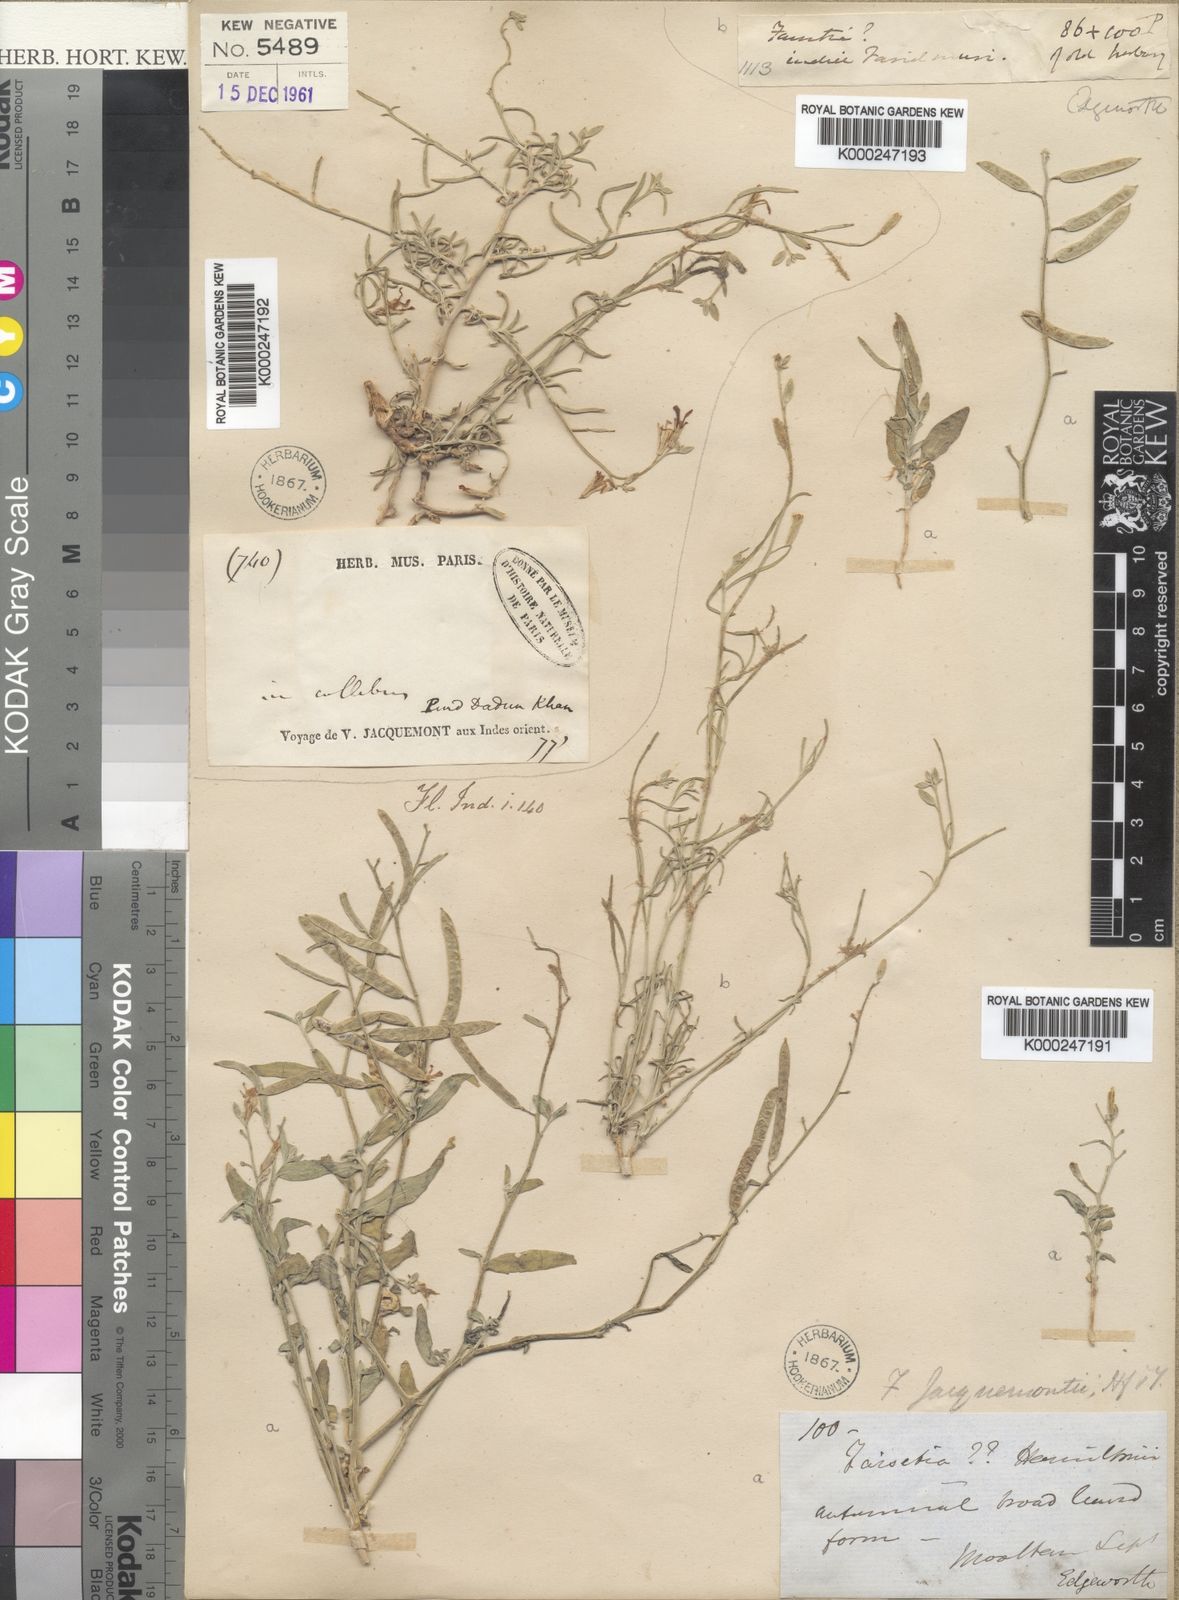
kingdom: Plantae
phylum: Tracheophyta
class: Magnoliopsida
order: Brassicales
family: Brassicaceae
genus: Farsetia
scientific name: Farsetia jacquemontii
